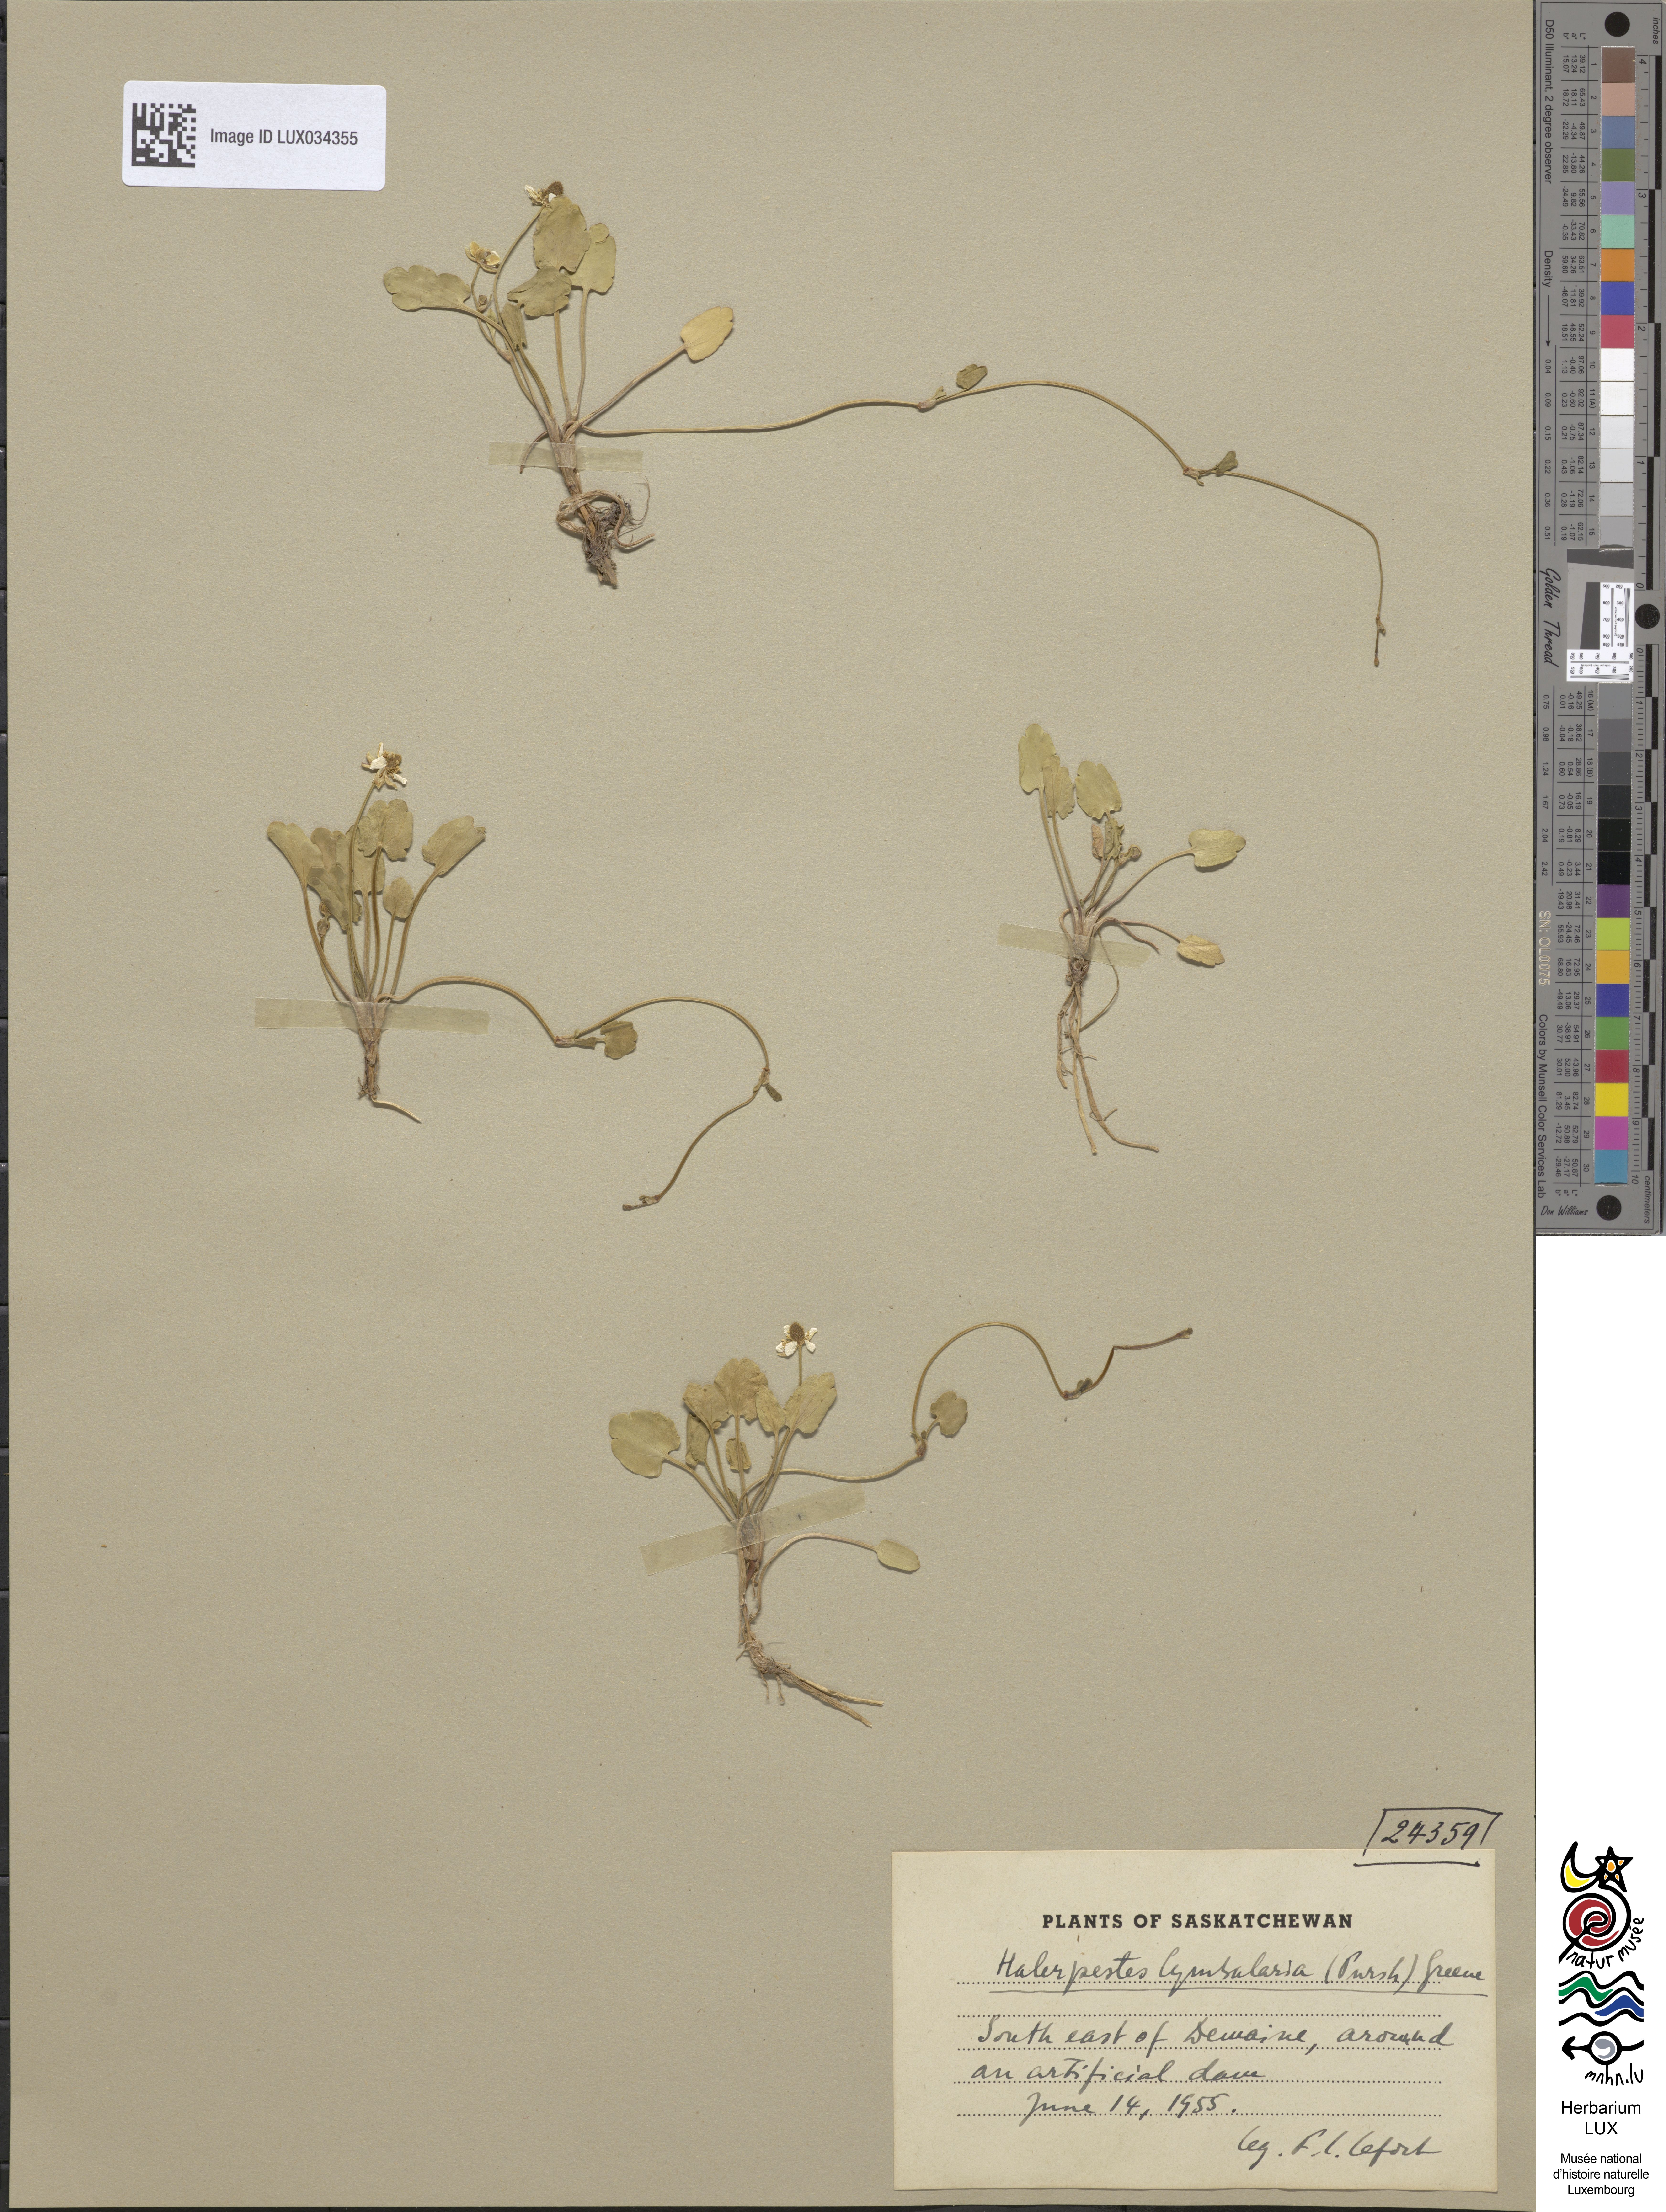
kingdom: Plantae
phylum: Tracheophyta
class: Magnoliopsida
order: Ranunculales
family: Ranunculaceae
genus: Halerpestes
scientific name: Halerpestes cymbalaria
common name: Seaside crowfoot
